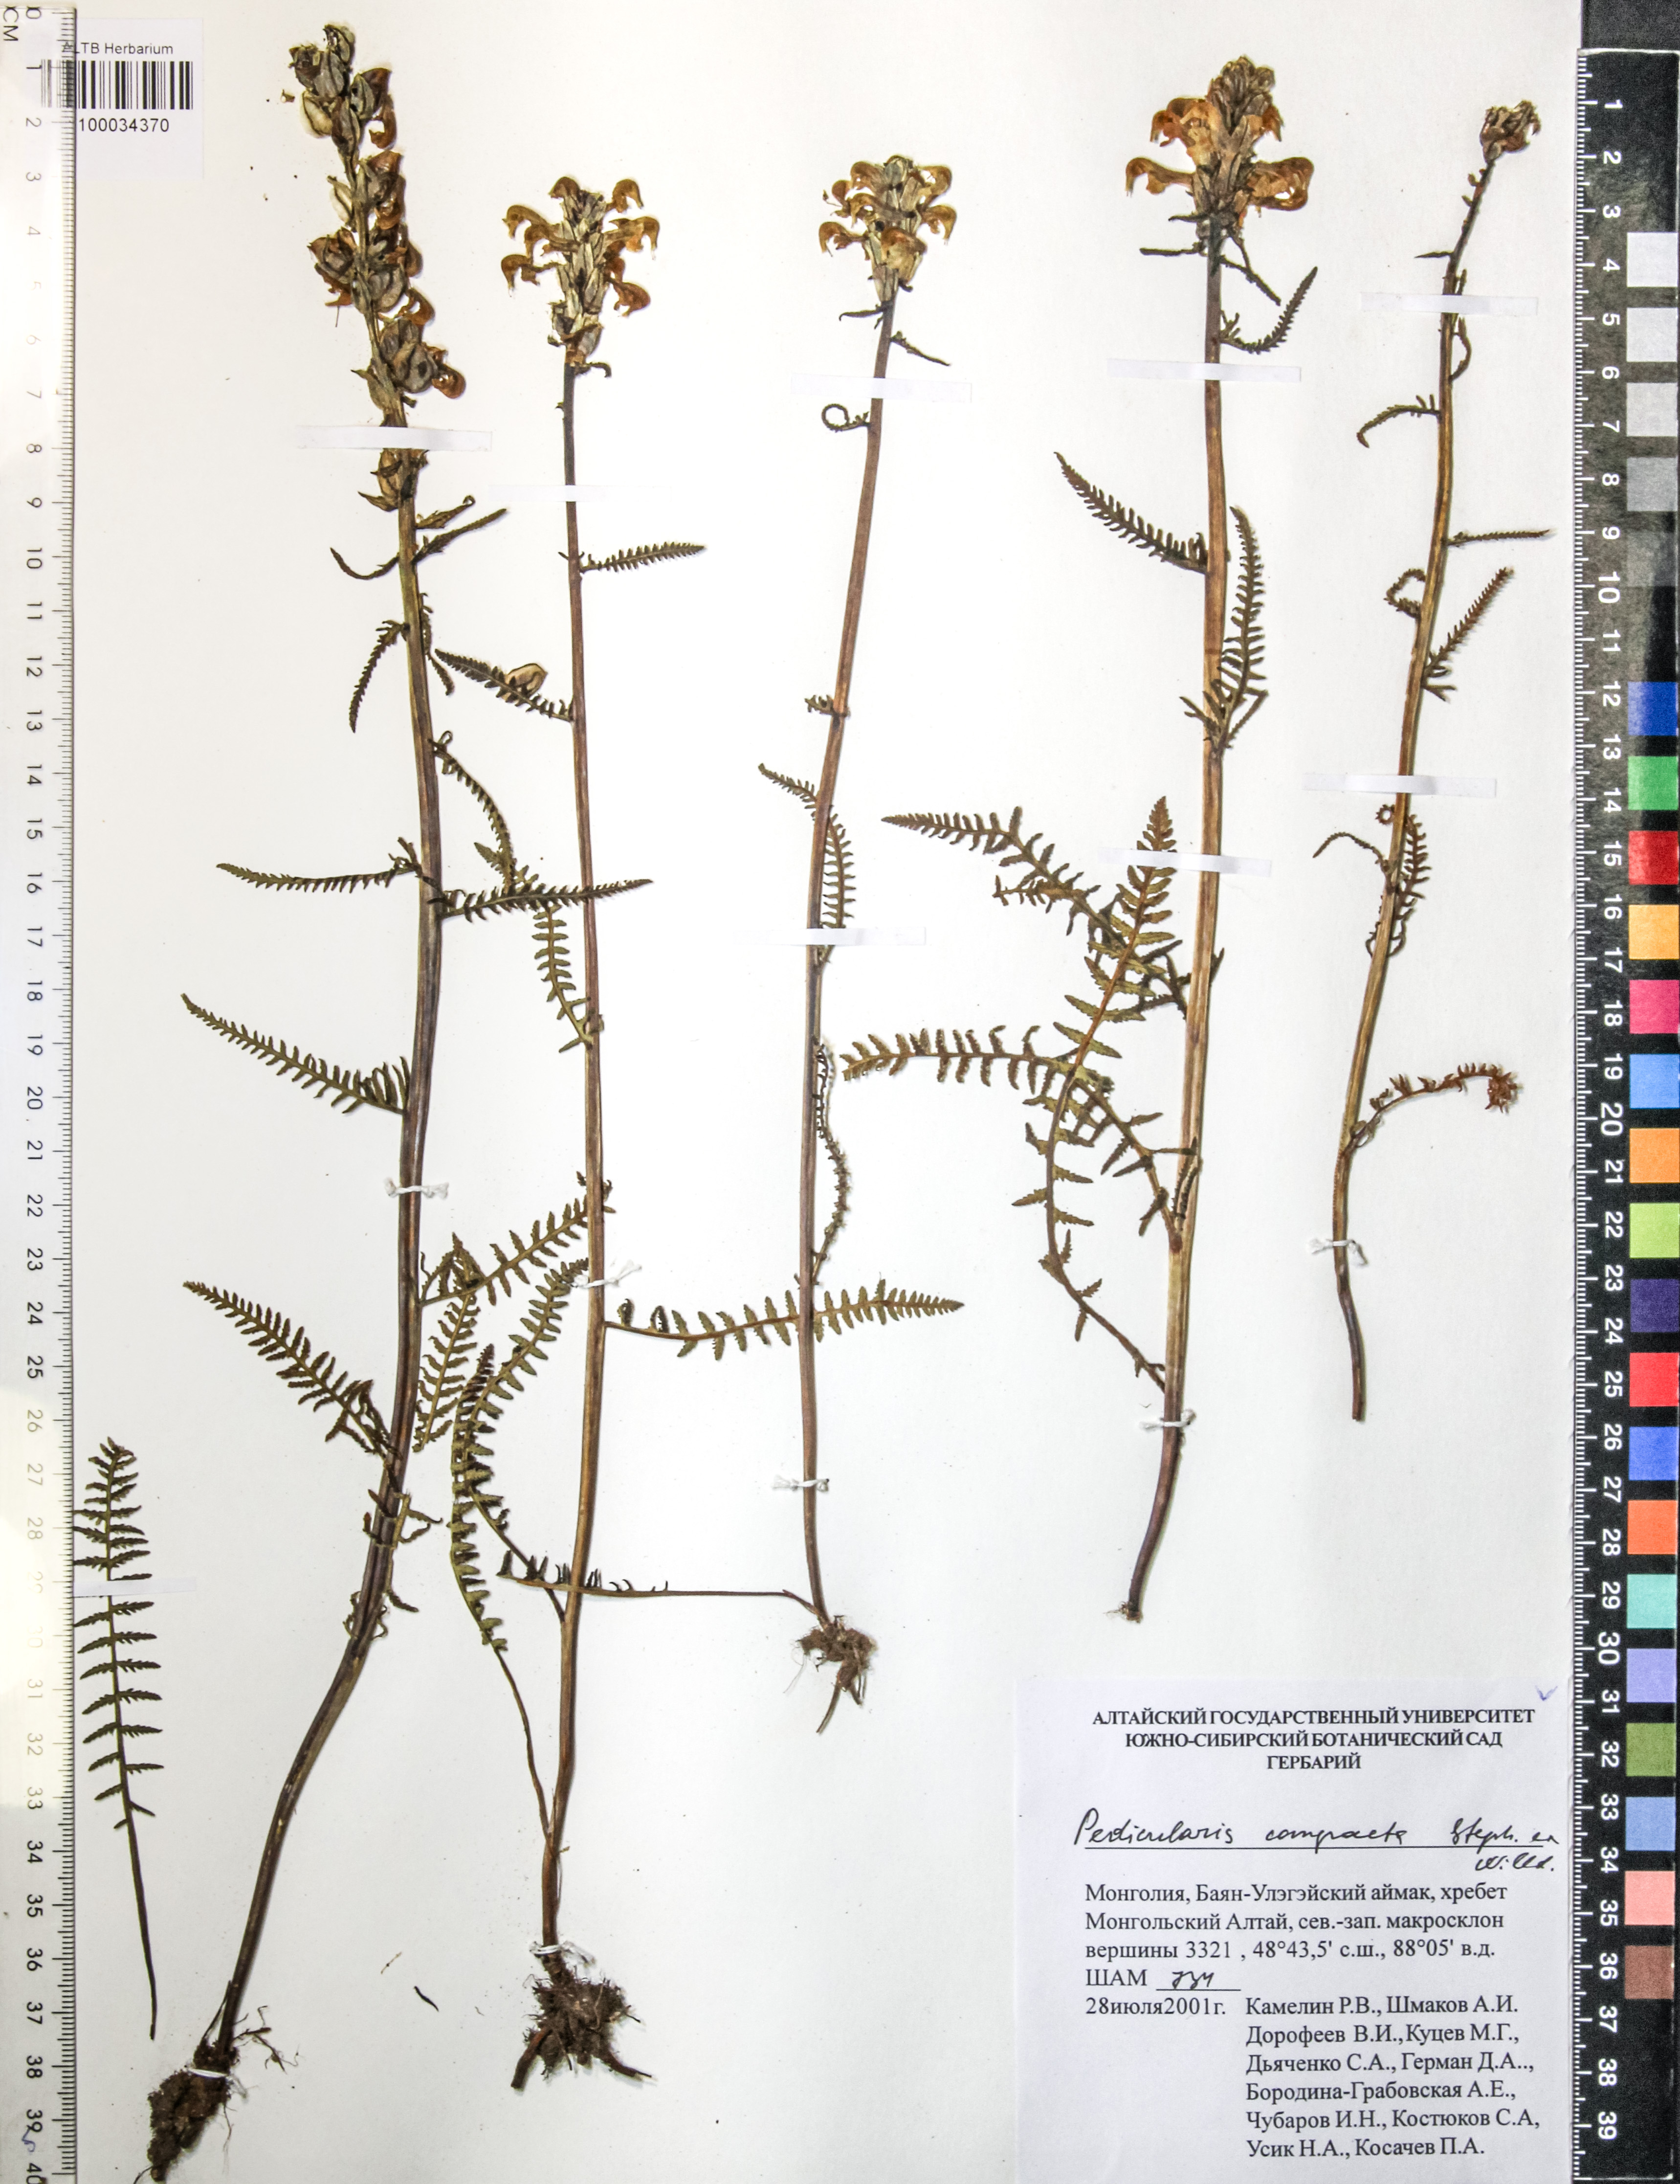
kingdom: Plantae
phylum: Tracheophyta
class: Magnoliopsida
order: Lamiales
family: Orobanchaceae
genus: Pedicularis
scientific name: Pedicularis compacta
